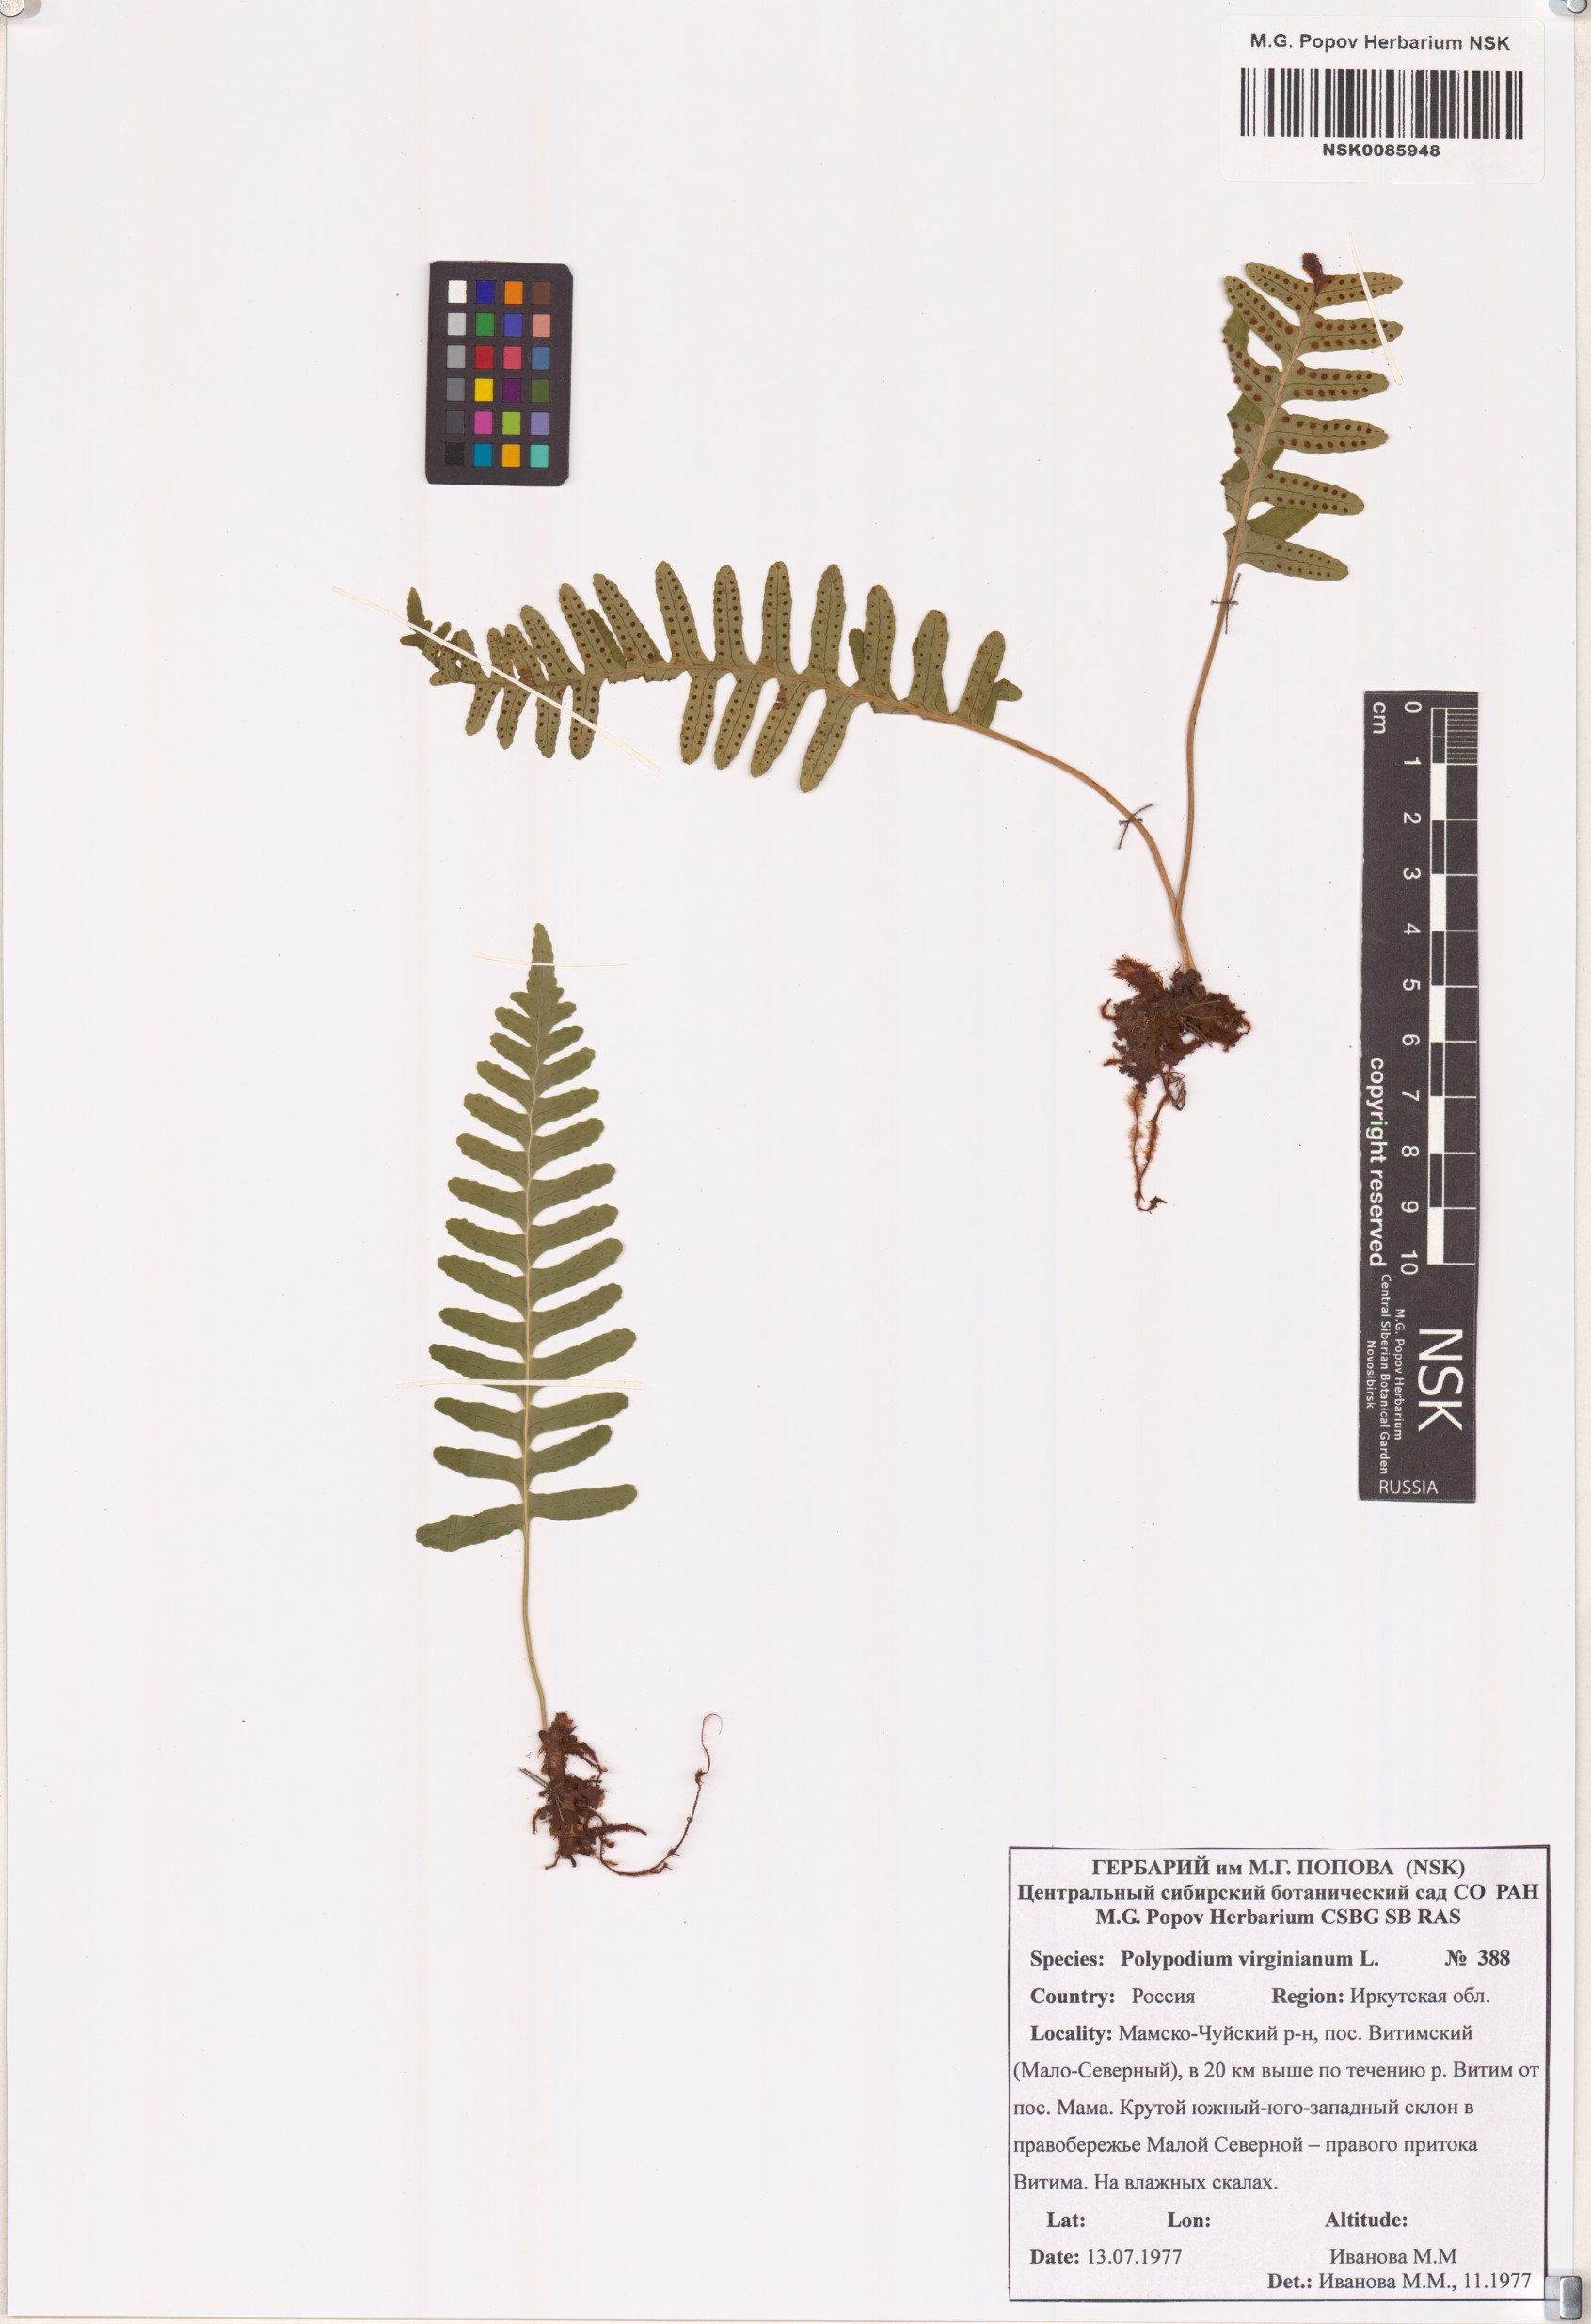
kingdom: Plantae
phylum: Tracheophyta
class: Polypodiopsida
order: Polypodiales
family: Polypodiaceae
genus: Polypodium
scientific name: Polypodium virginianum
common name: American wall fern
